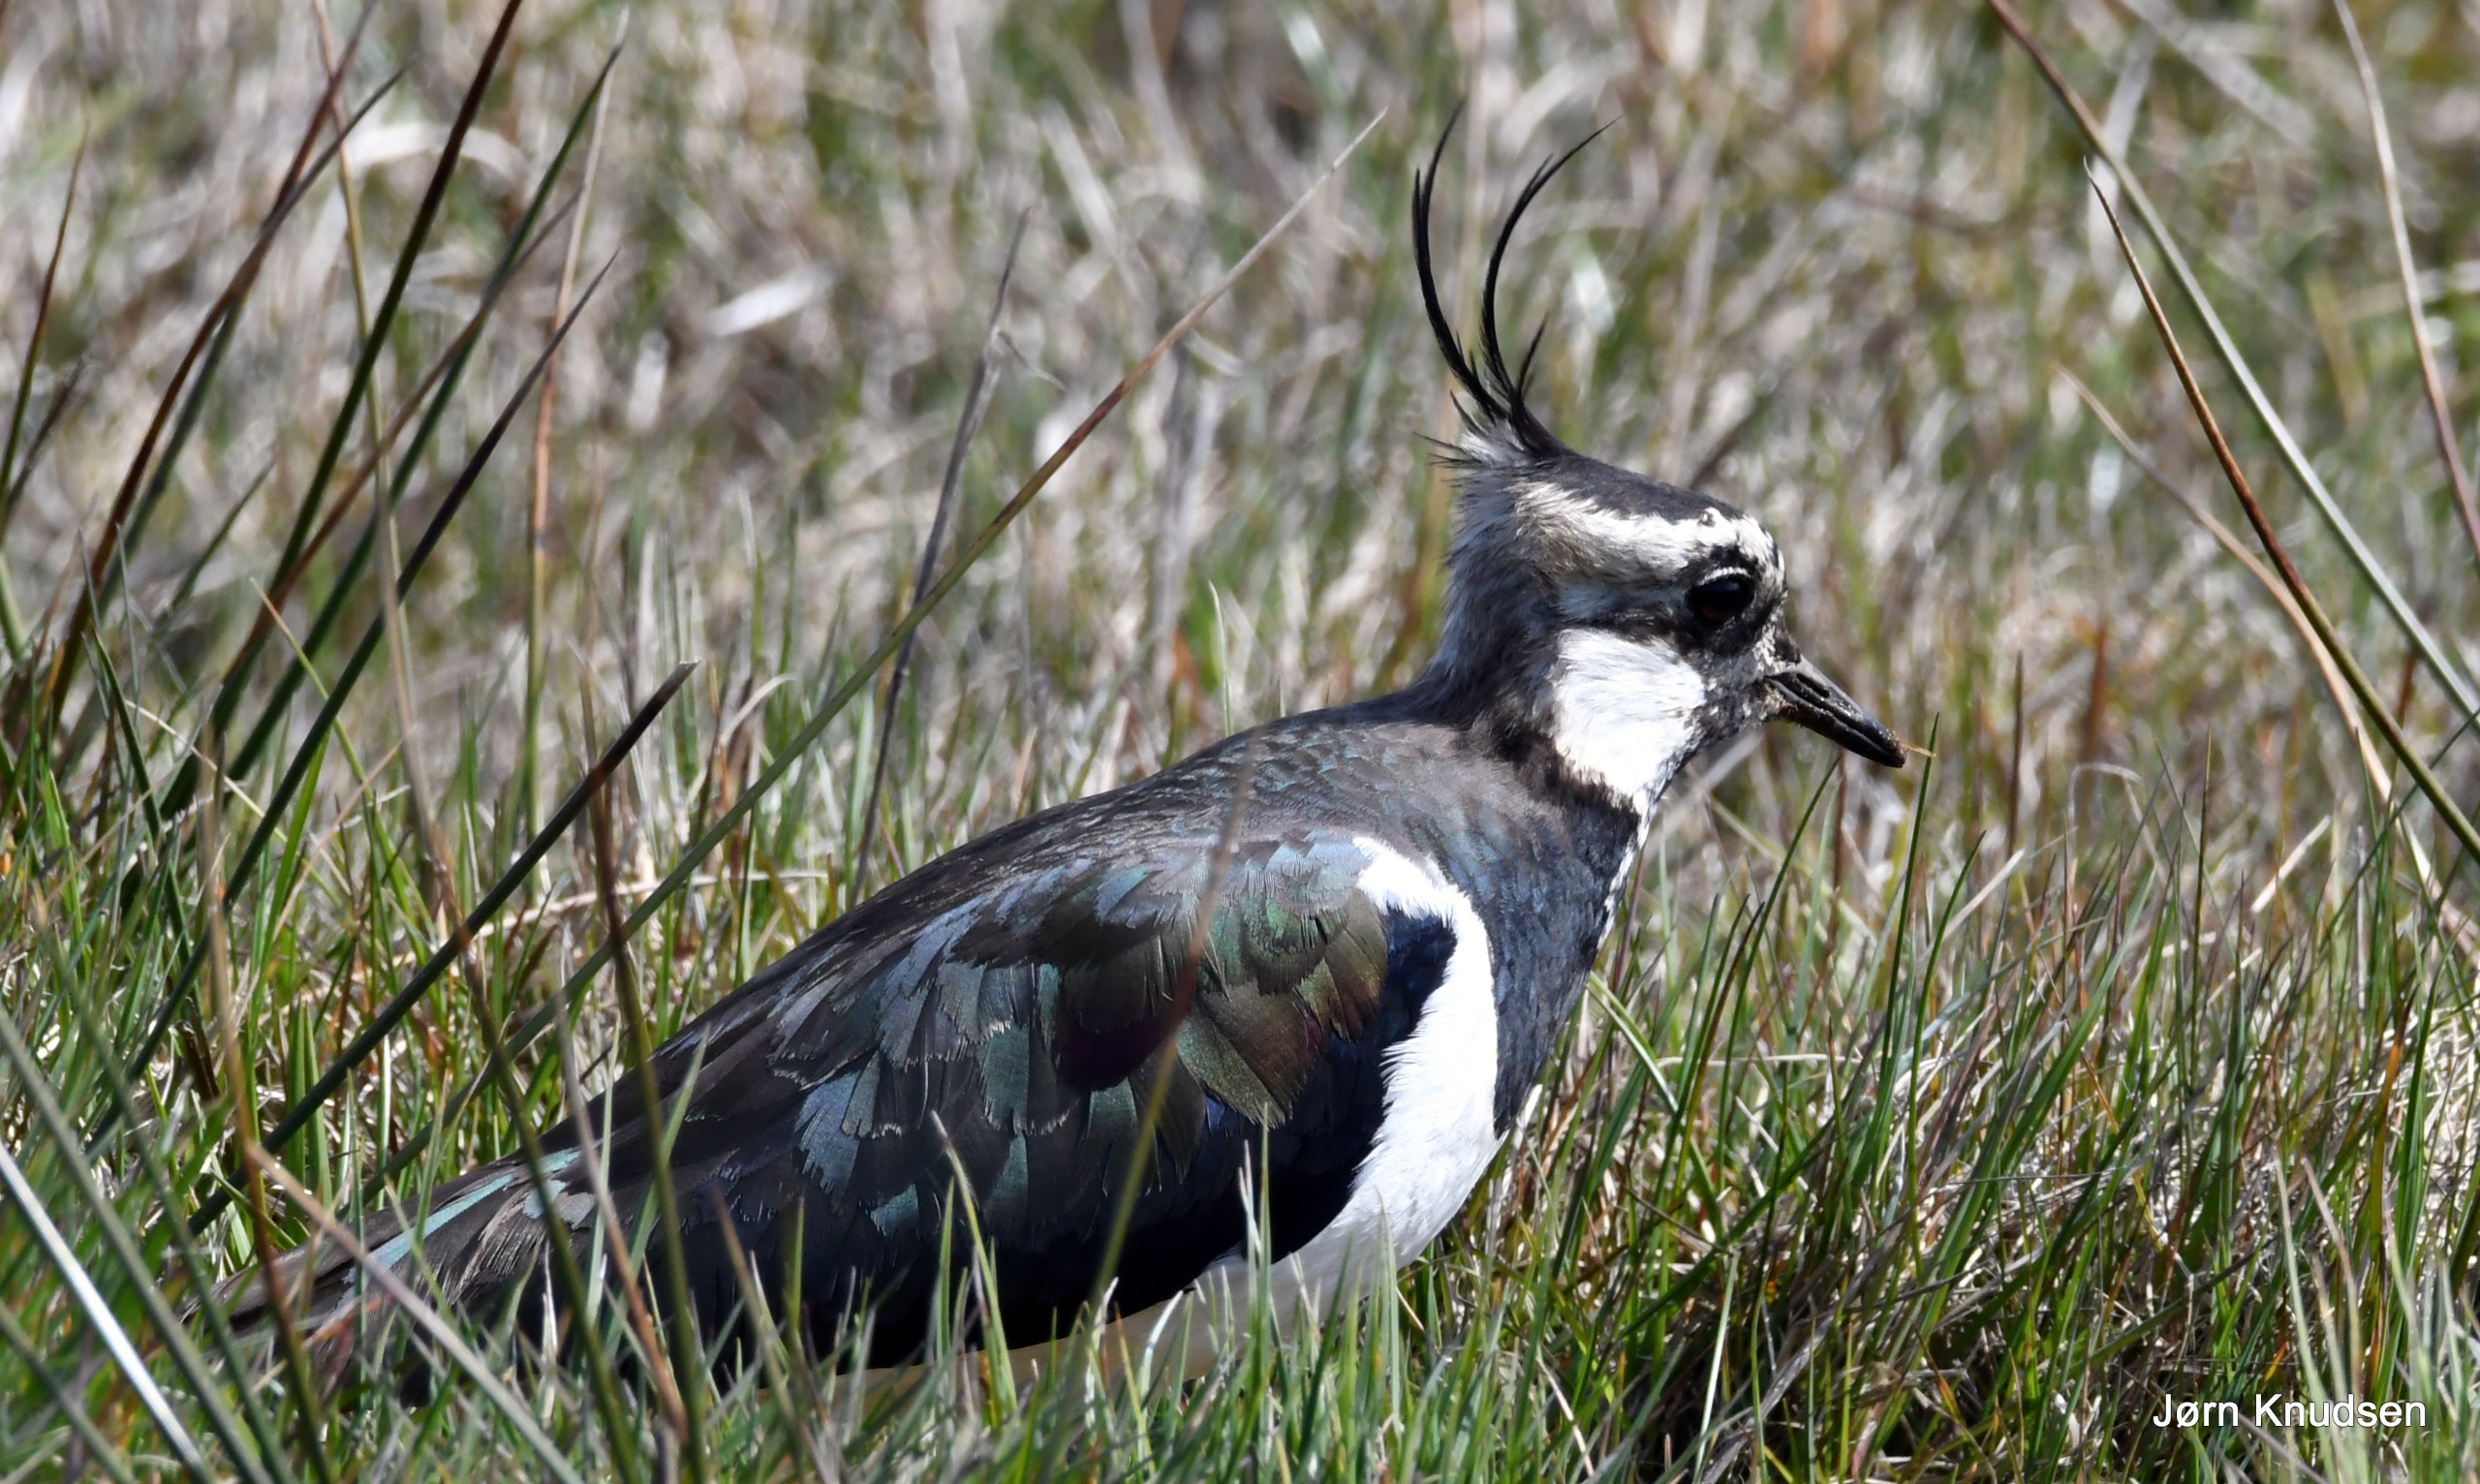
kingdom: Animalia
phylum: Chordata
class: Aves
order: Charadriiformes
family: Charadriidae
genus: Vanellus
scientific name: Vanellus vanellus
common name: Vibe
